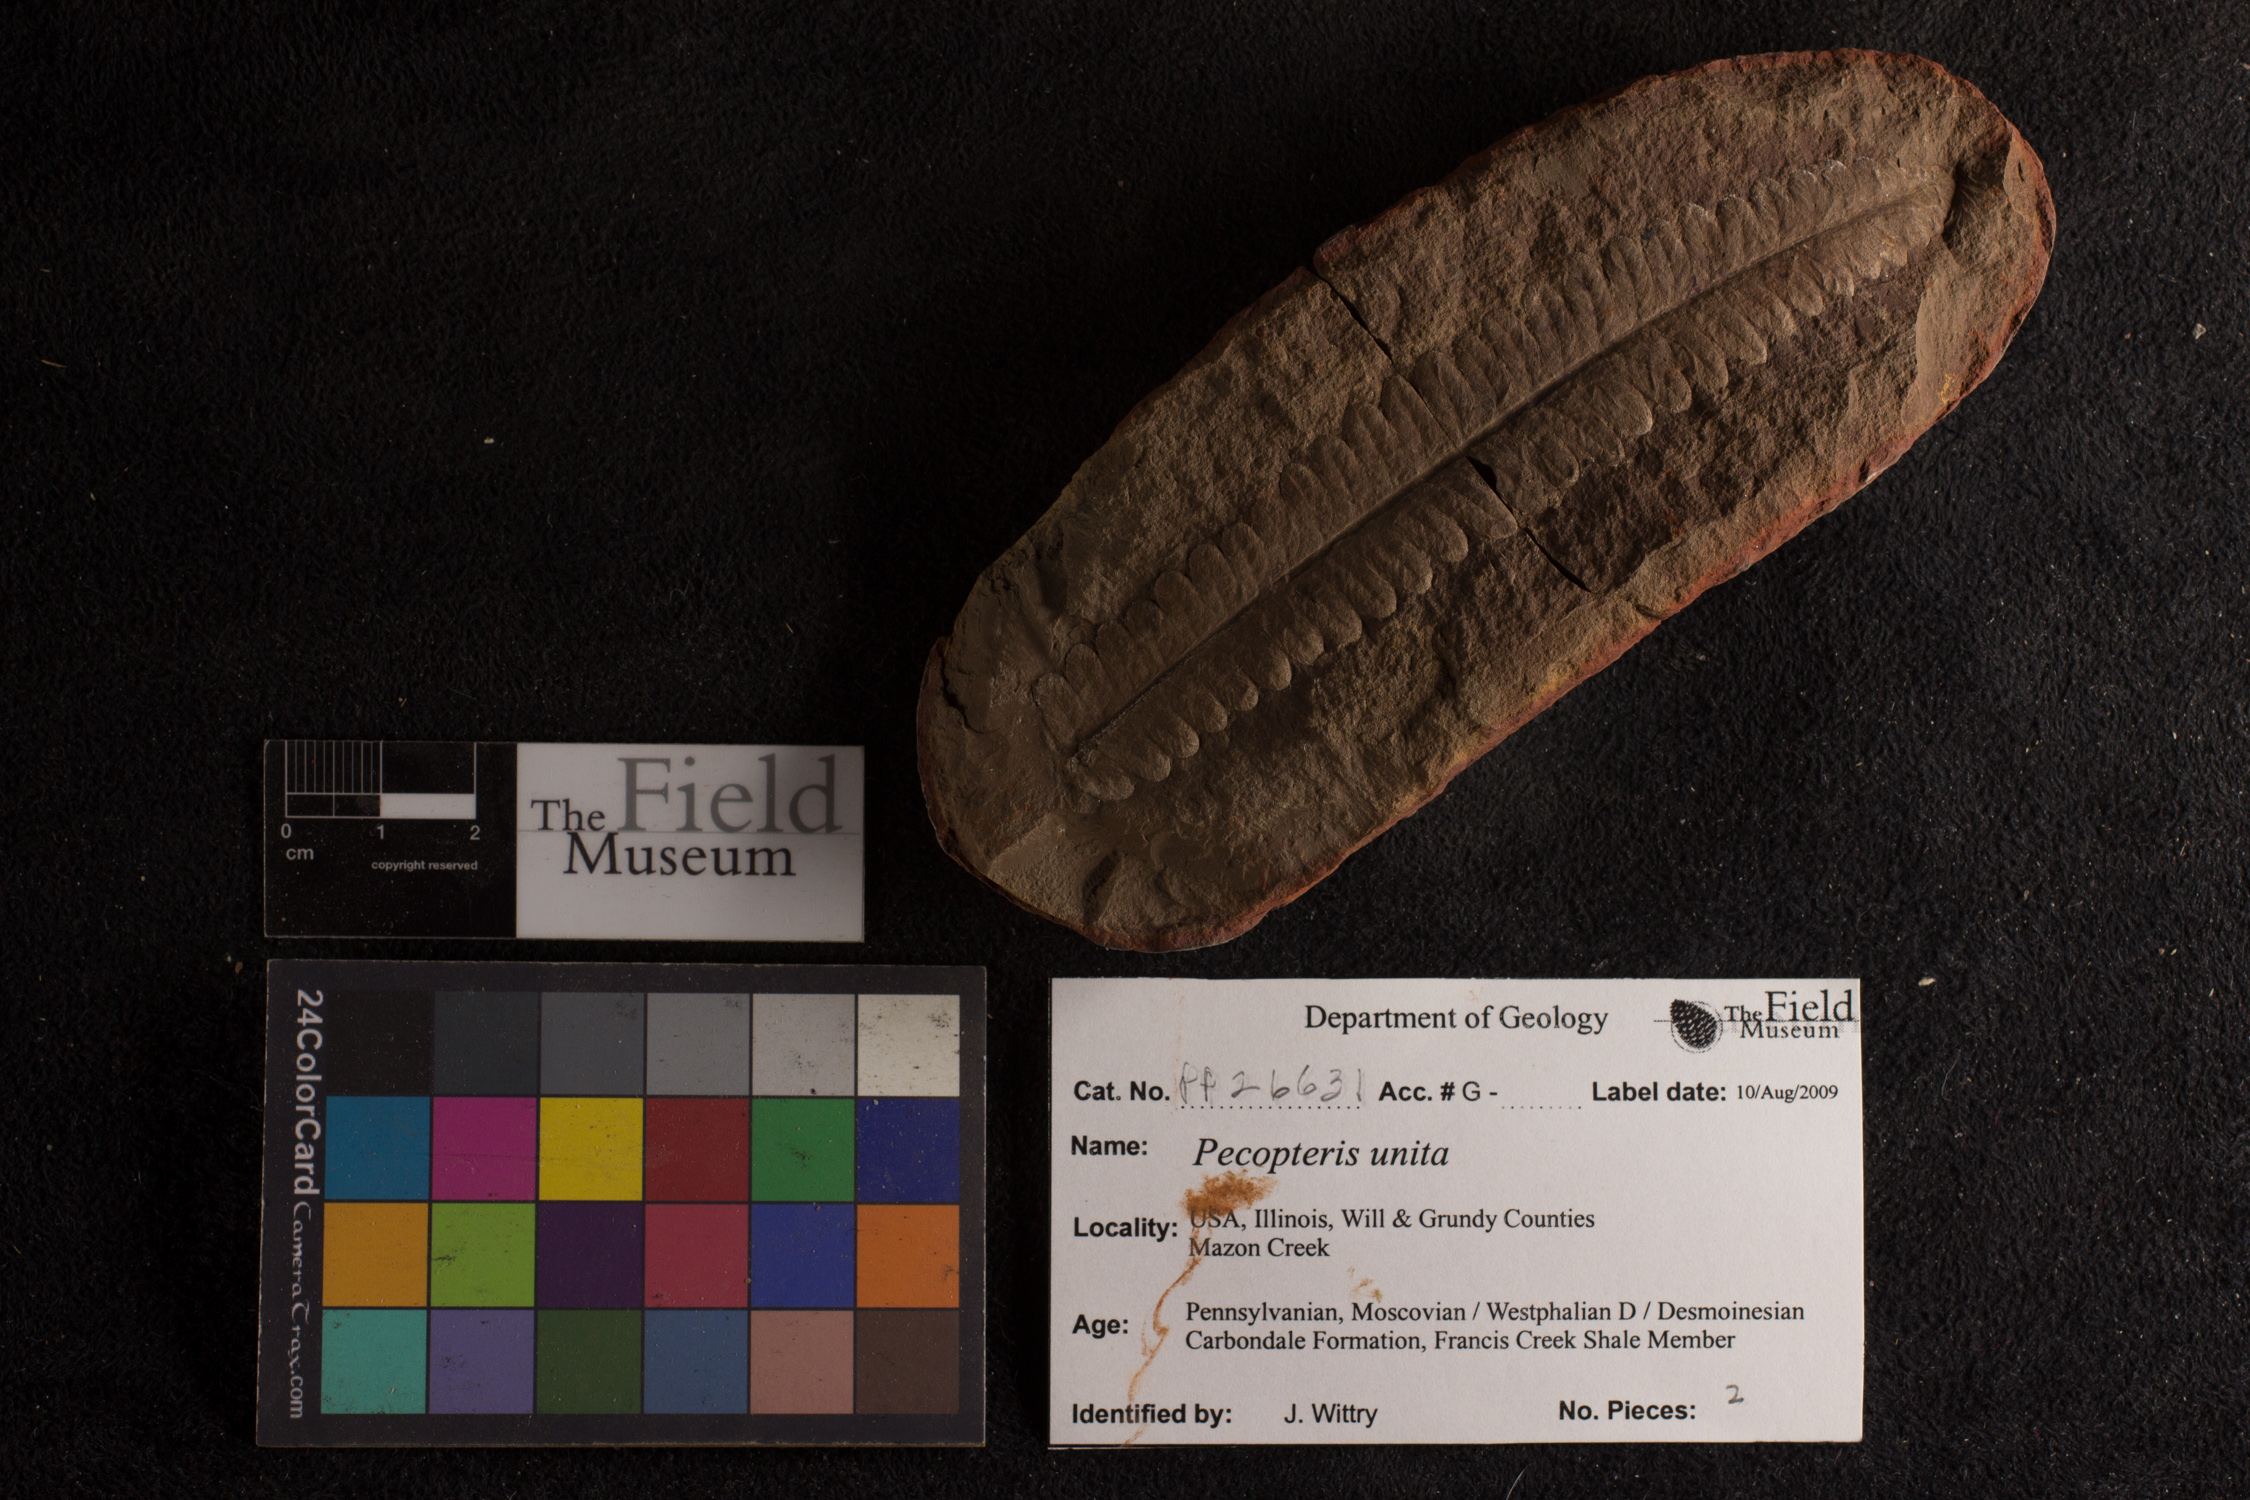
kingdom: Plantae
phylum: Tracheophyta
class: Polypodiopsida
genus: Diplazites
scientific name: Diplazites
